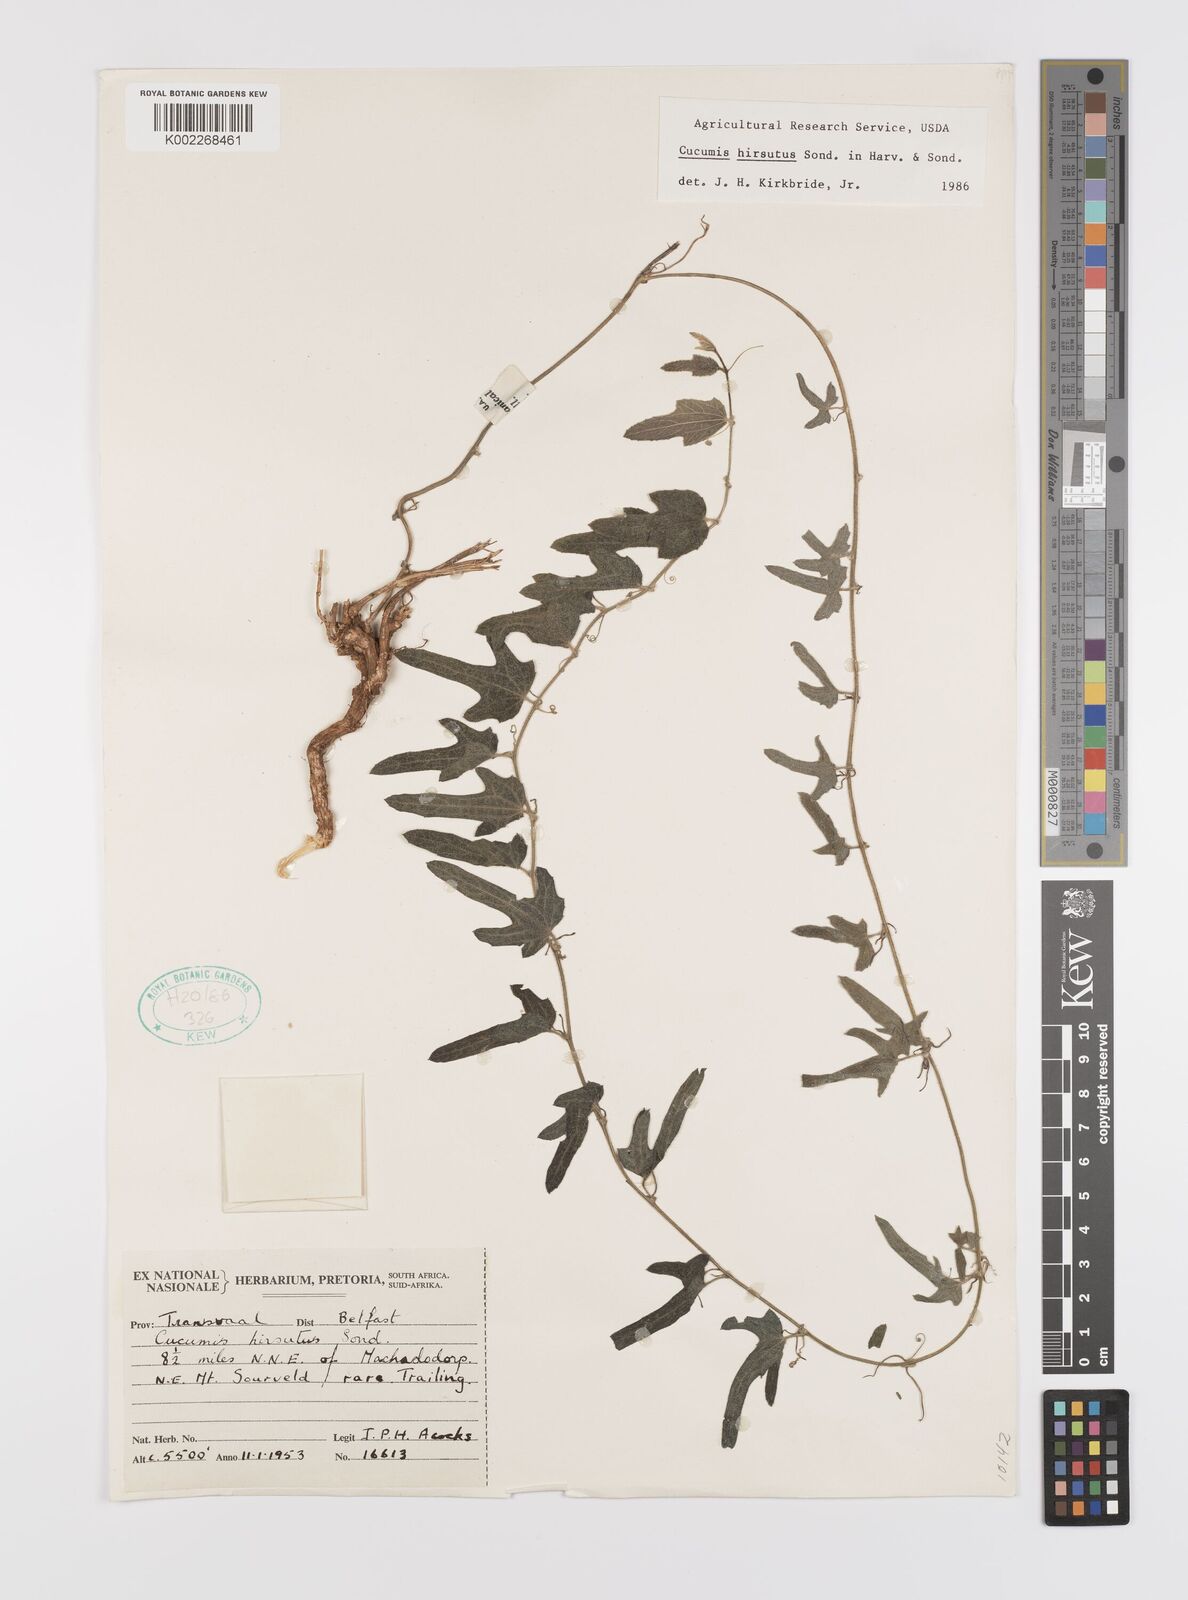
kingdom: Plantae
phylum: Tracheophyta
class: Magnoliopsida
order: Cucurbitales
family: Cucurbitaceae
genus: Cucumis
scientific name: Cucumis hirsutus
